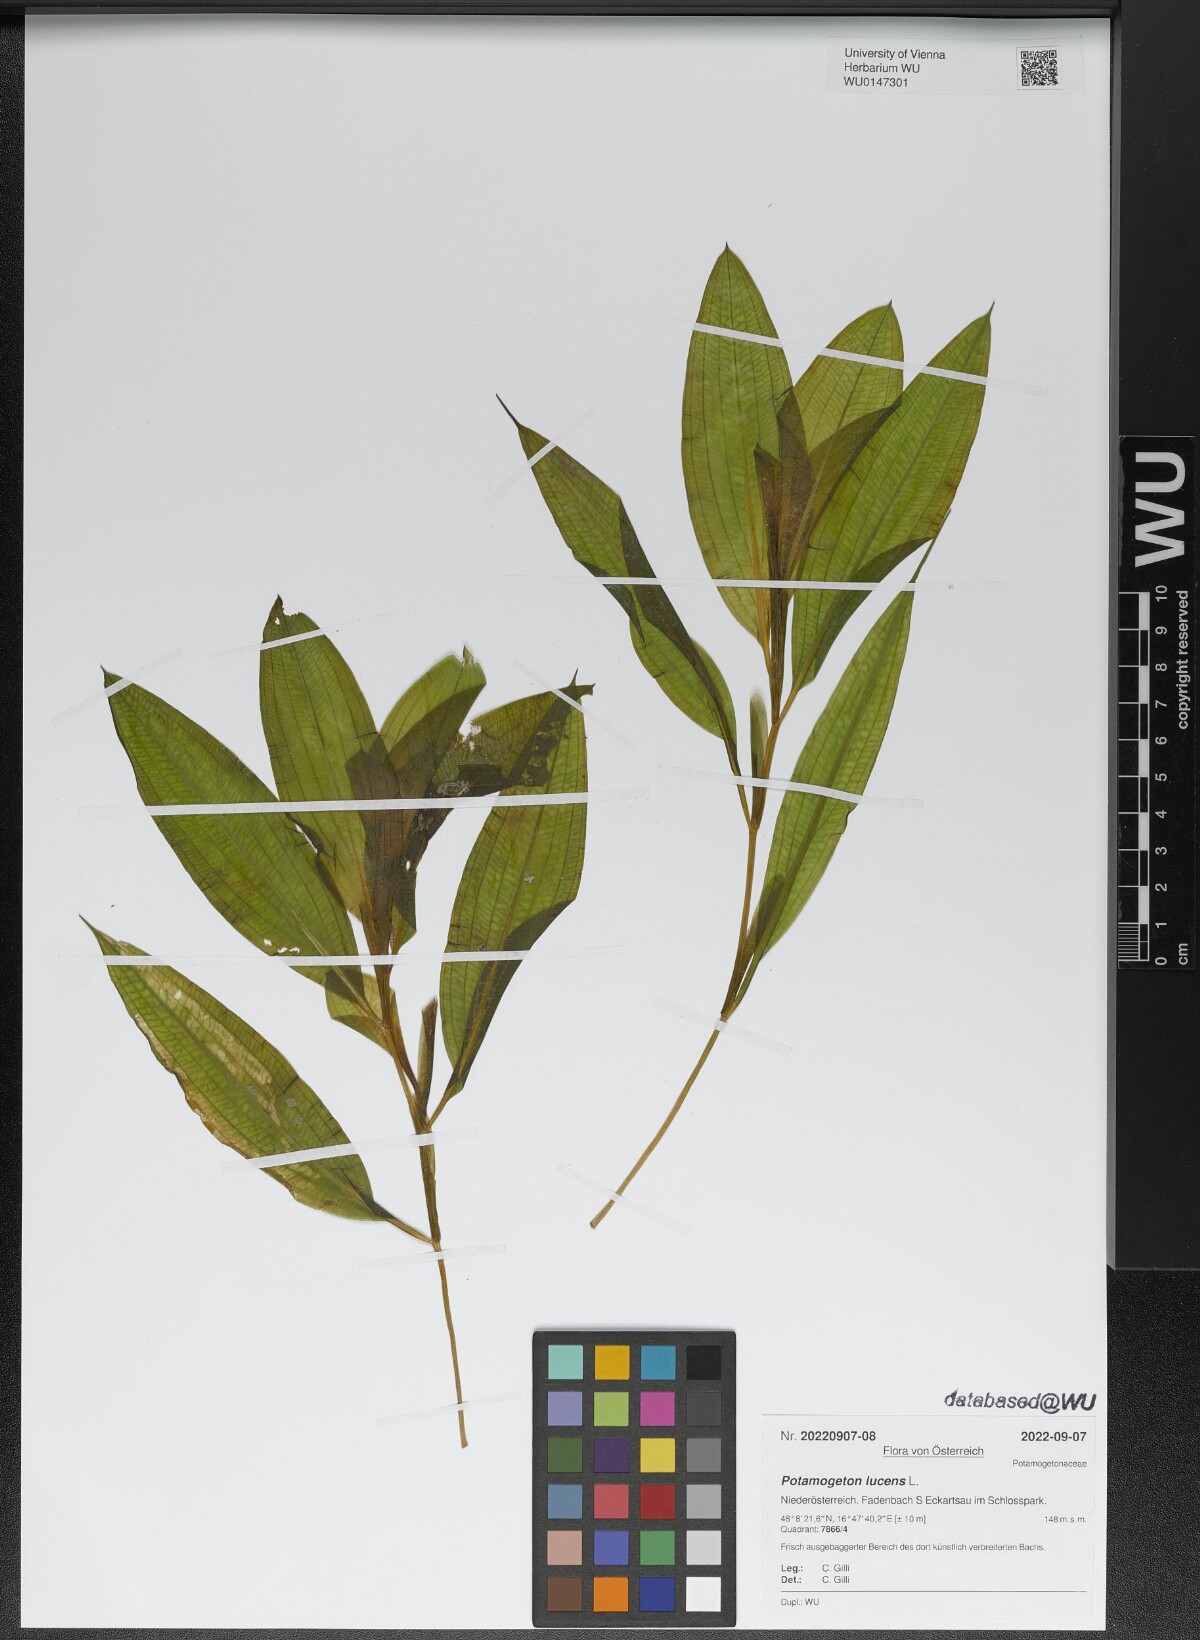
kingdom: Plantae
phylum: Tracheophyta
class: Liliopsida
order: Alismatales
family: Potamogetonaceae
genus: Potamogeton
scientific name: Potamogeton lucens
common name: Shining pondweed
